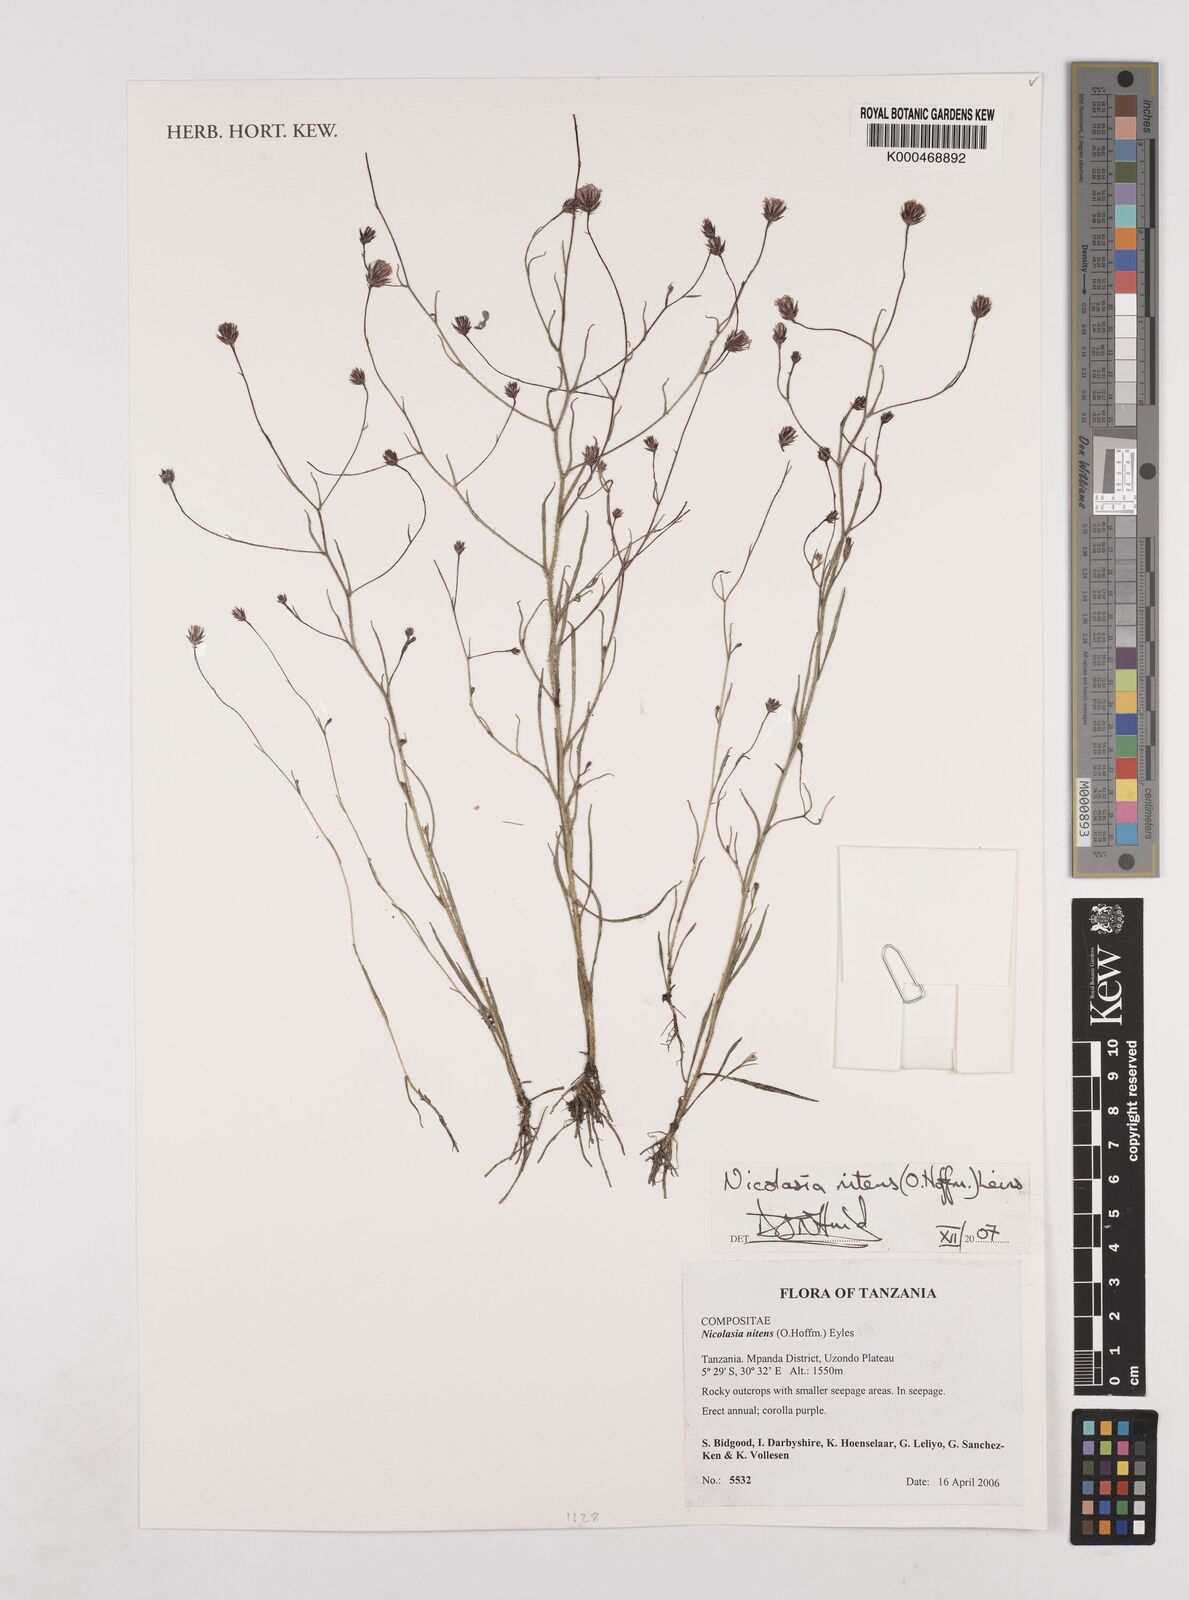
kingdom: Plantae
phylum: Tracheophyta
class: Magnoliopsida
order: Asterales
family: Asteraceae
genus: Nicolasia
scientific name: Nicolasia
